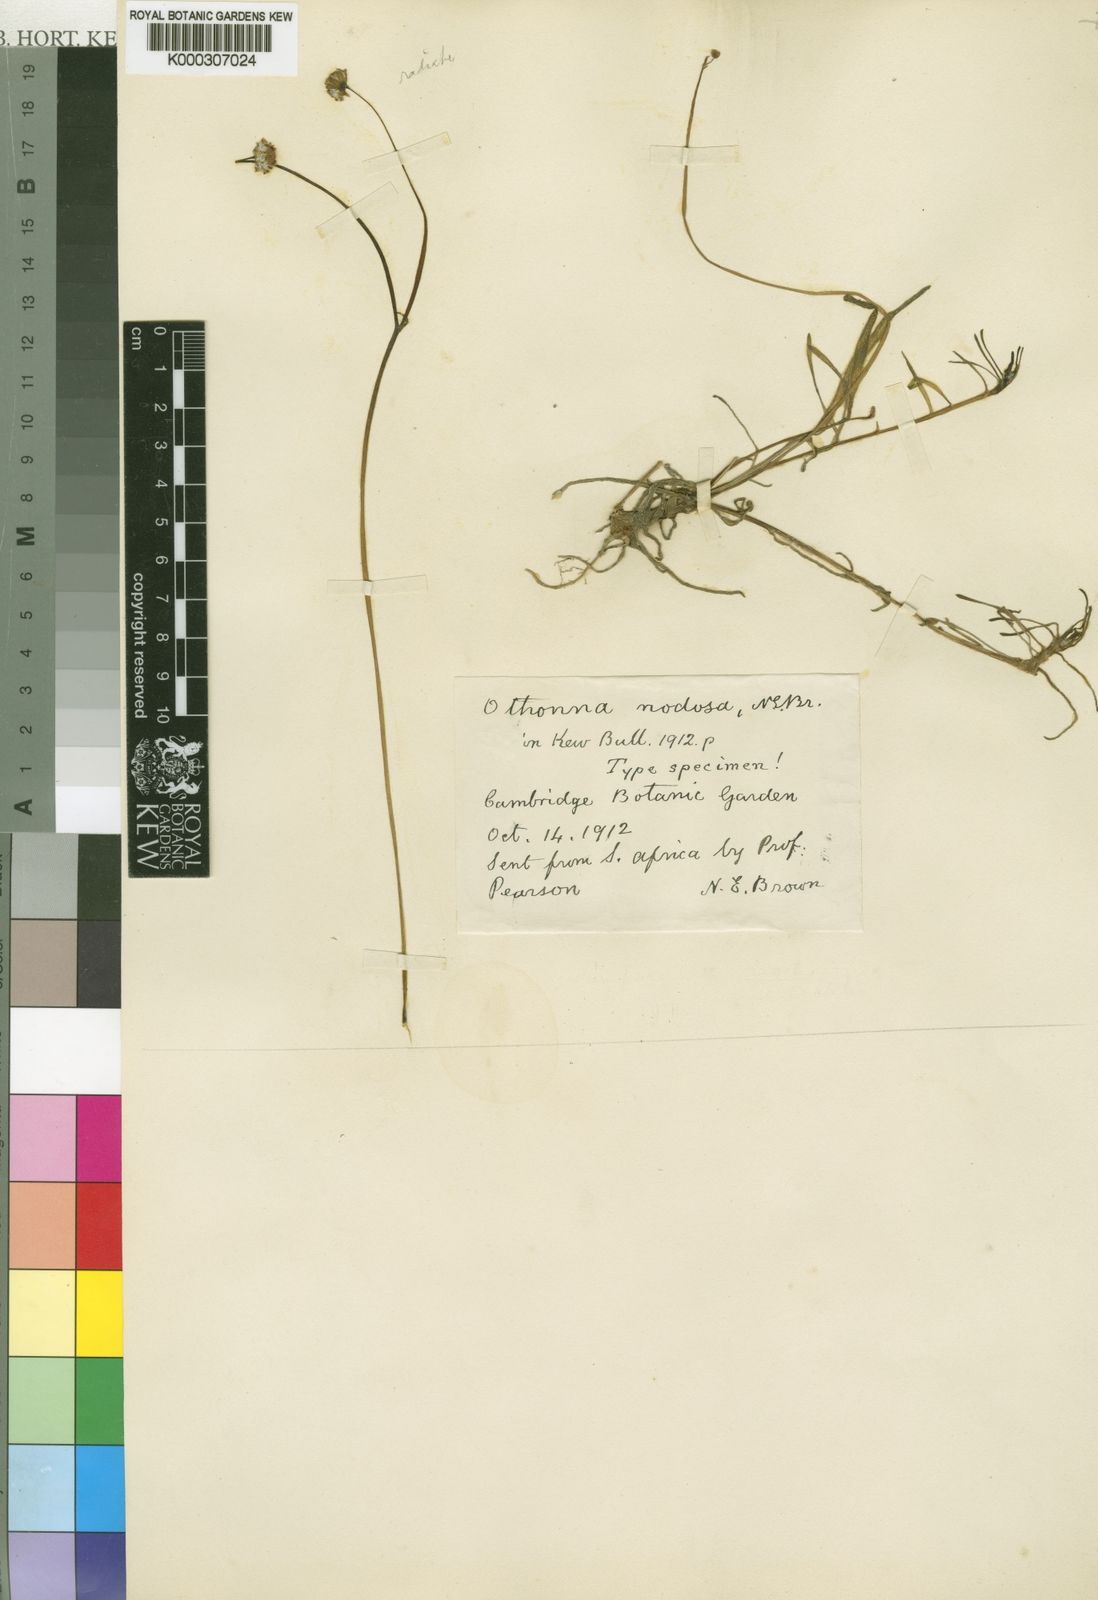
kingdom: Plantae
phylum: Tracheophyta
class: Magnoliopsida
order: Asterales
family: Asteraceae
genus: Othonna
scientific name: Othonna
